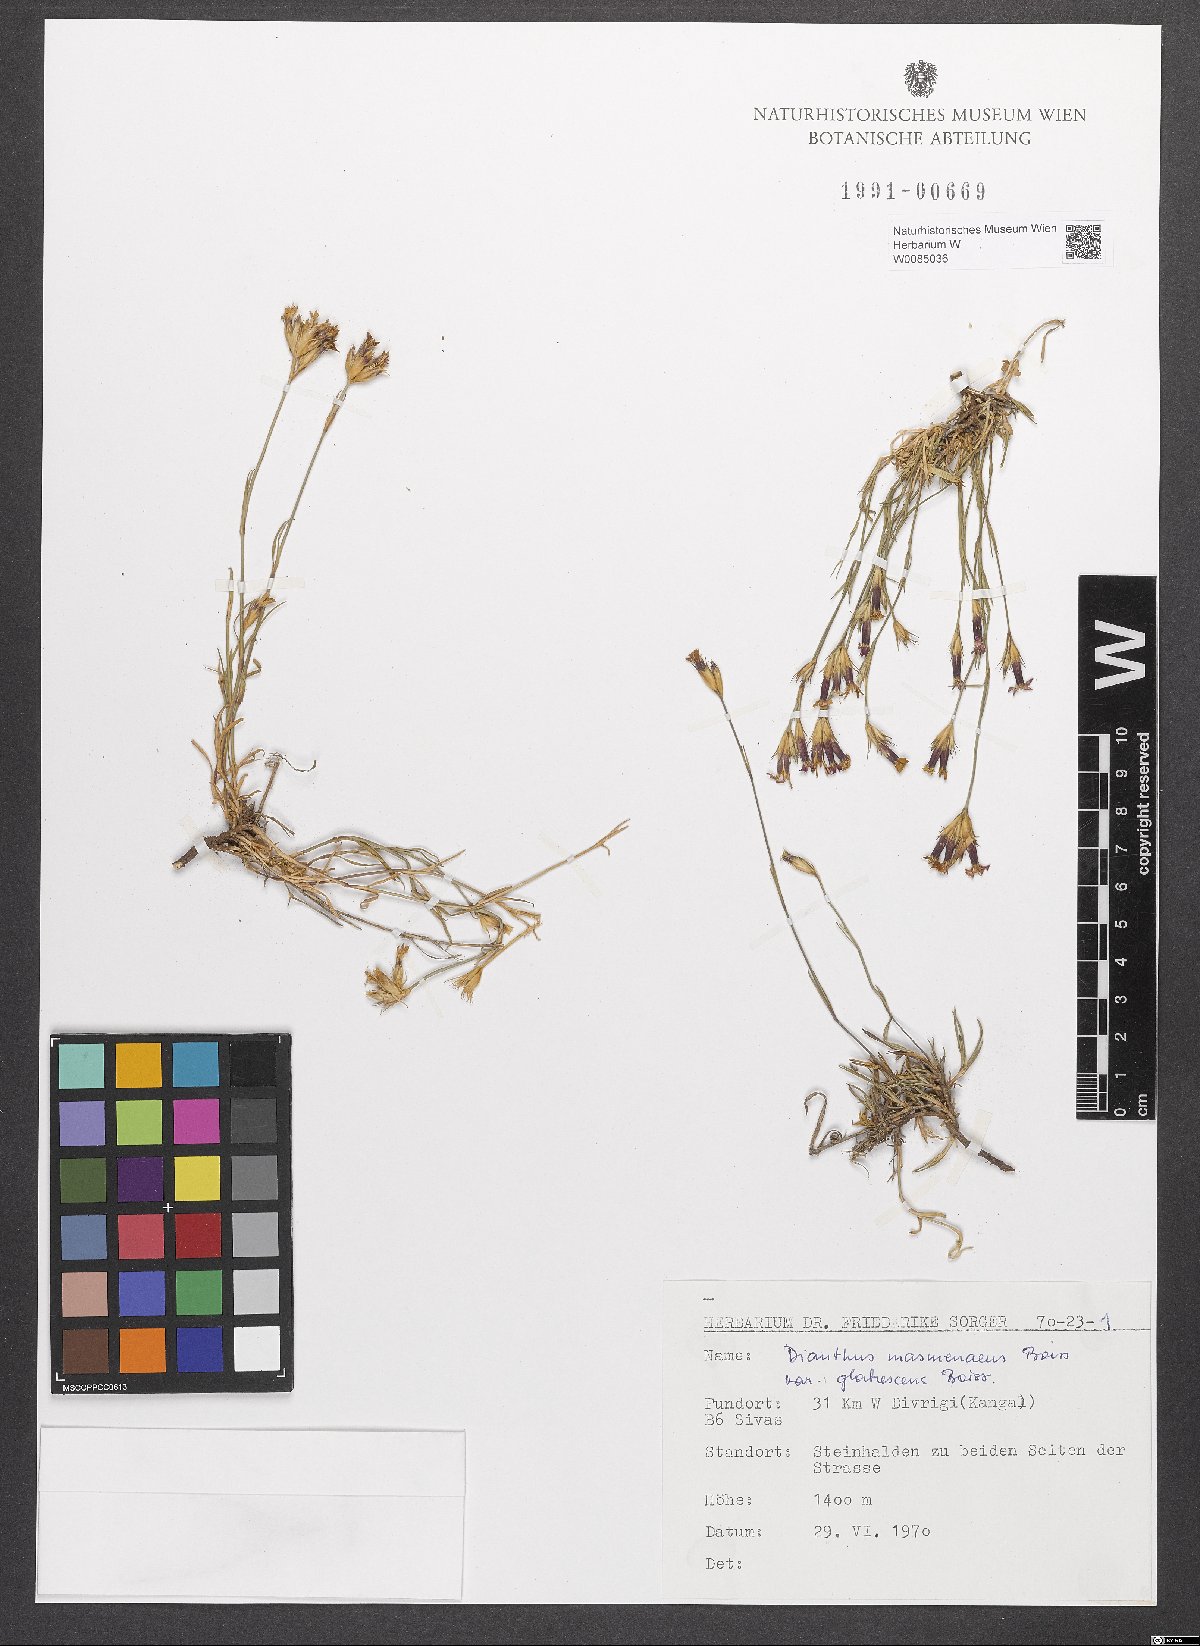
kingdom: Plantae
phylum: Tracheophyta
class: Magnoliopsida
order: Caryophyllales
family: Caryophyllaceae
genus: Dianthus
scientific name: Dianthus masmenaeus
